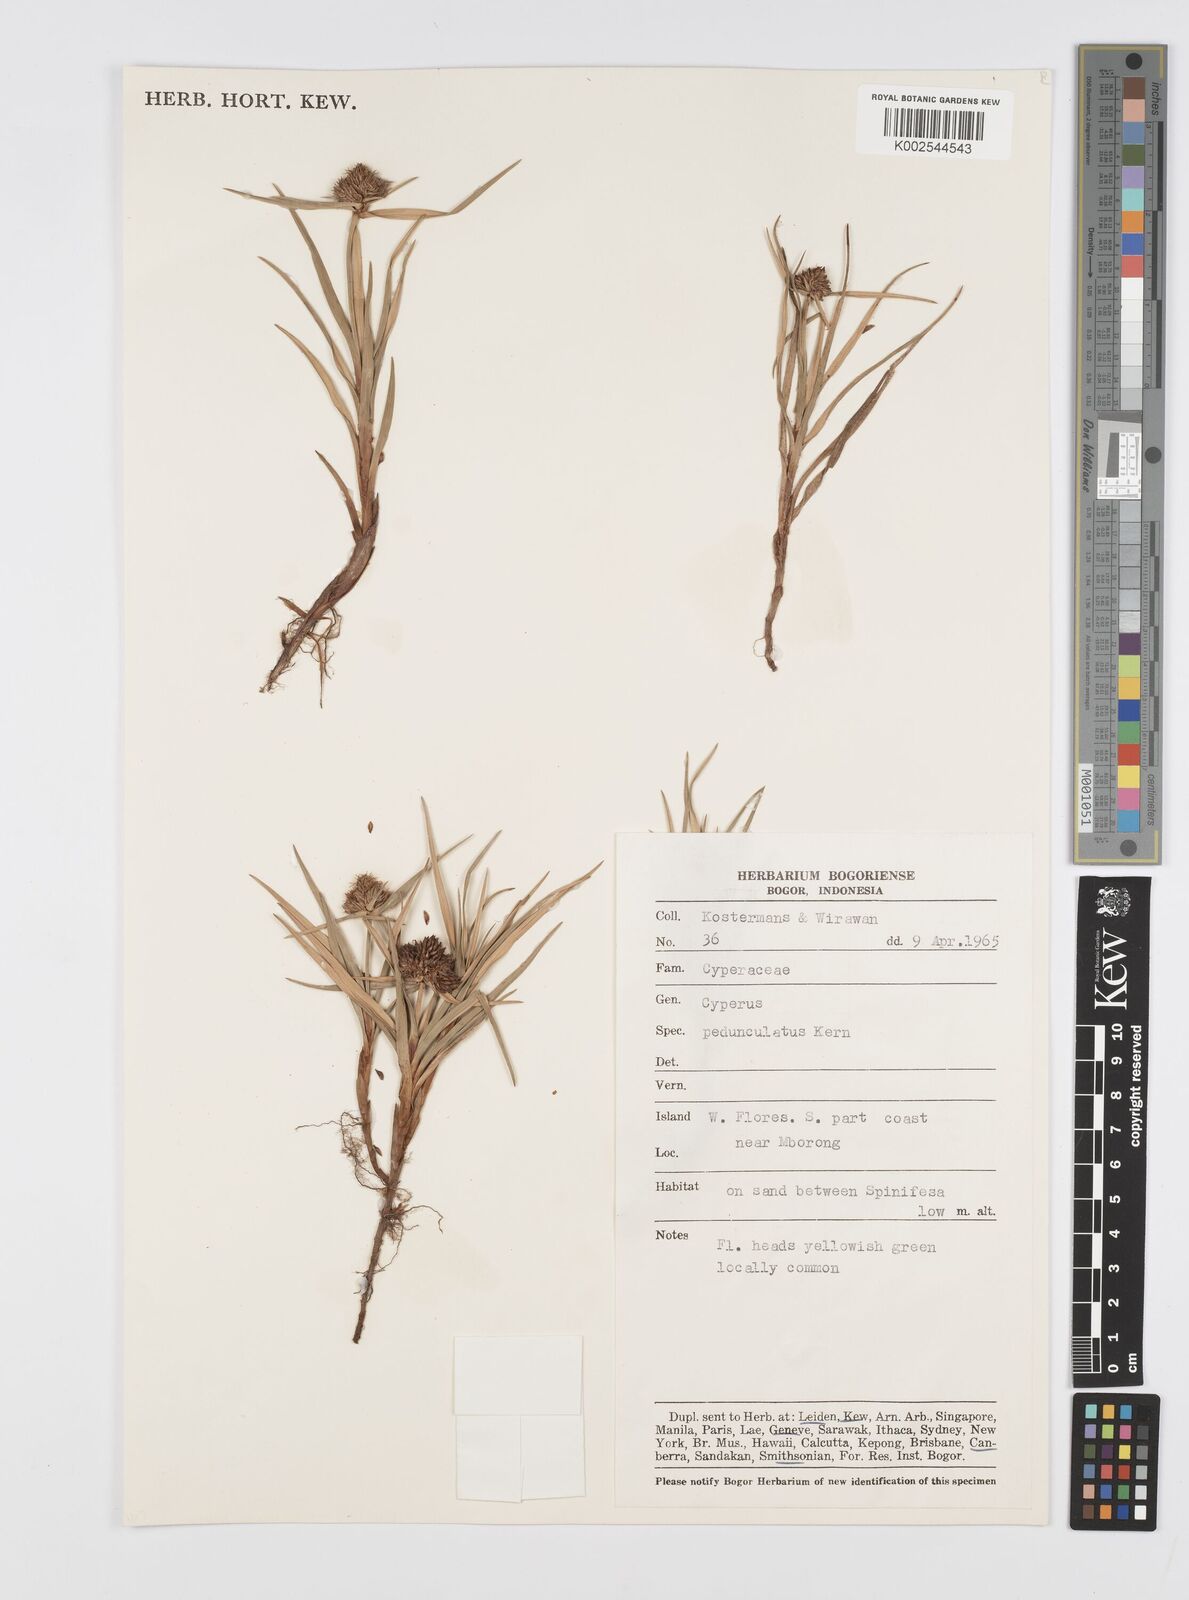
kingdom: Plantae
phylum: Tracheophyta
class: Liliopsida
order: Poales
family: Cyperaceae
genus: Cyperus
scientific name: Cyperus
